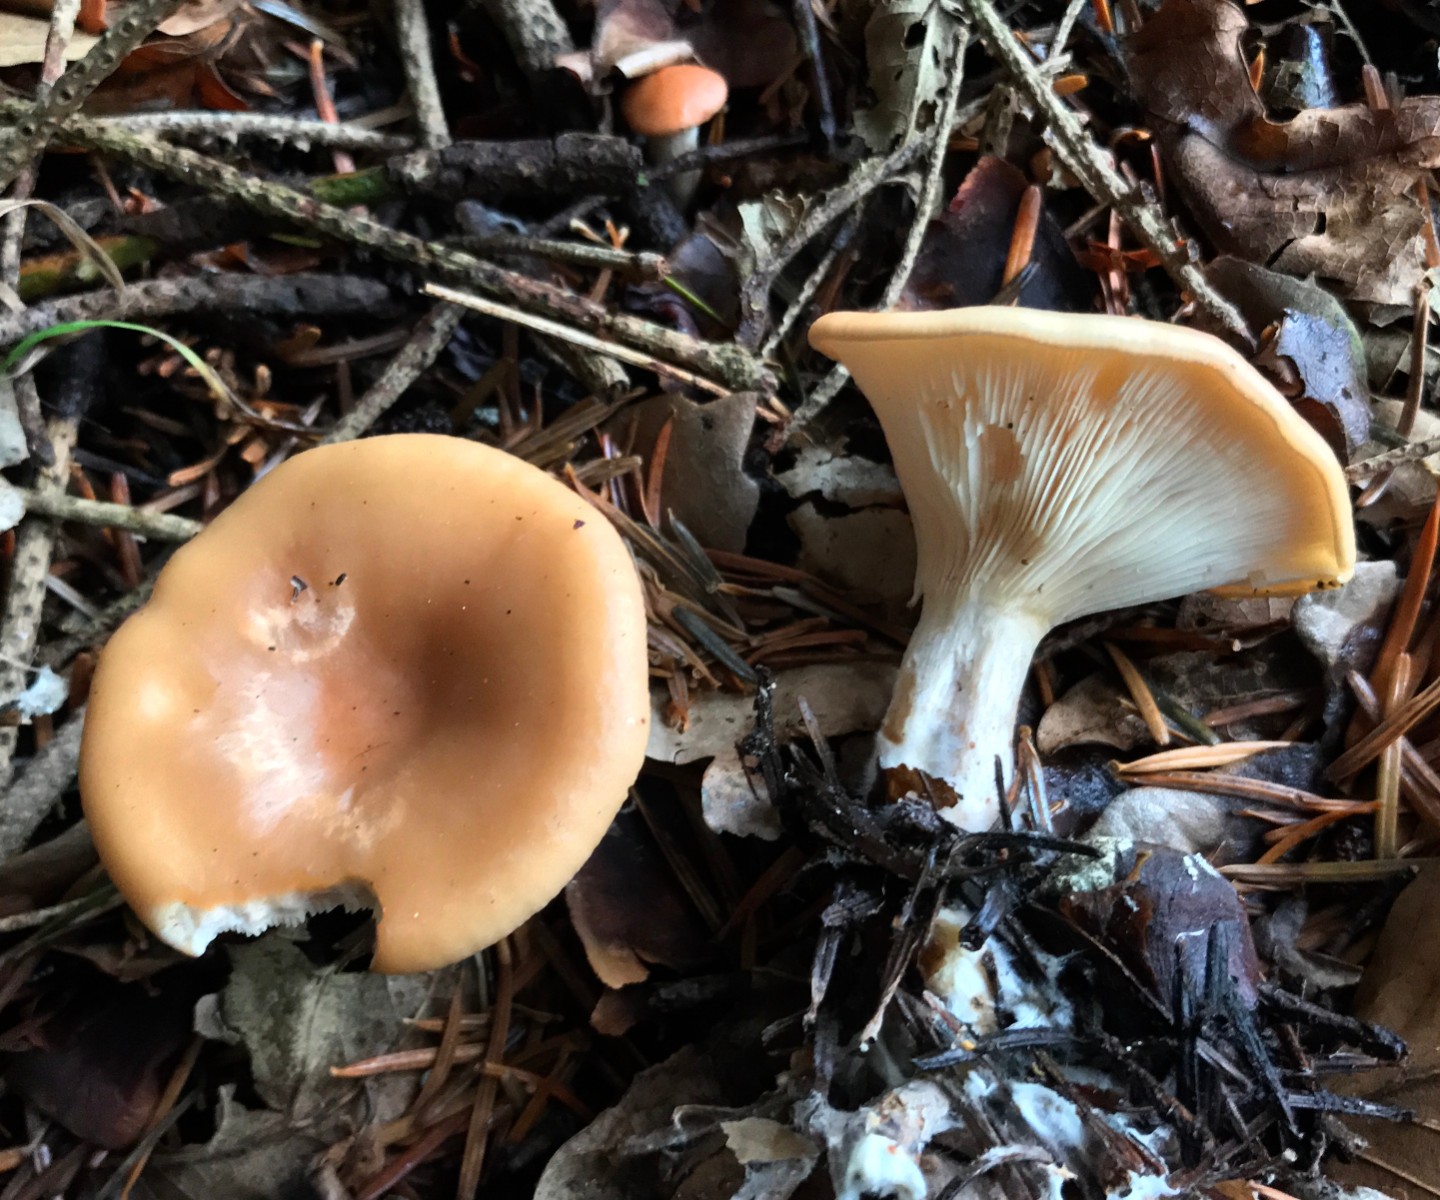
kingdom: Fungi
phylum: Basidiomycota
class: Agaricomycetes
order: Agaricales
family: Tricholomataceae
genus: Paralepista
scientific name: Paralepista flaccida
